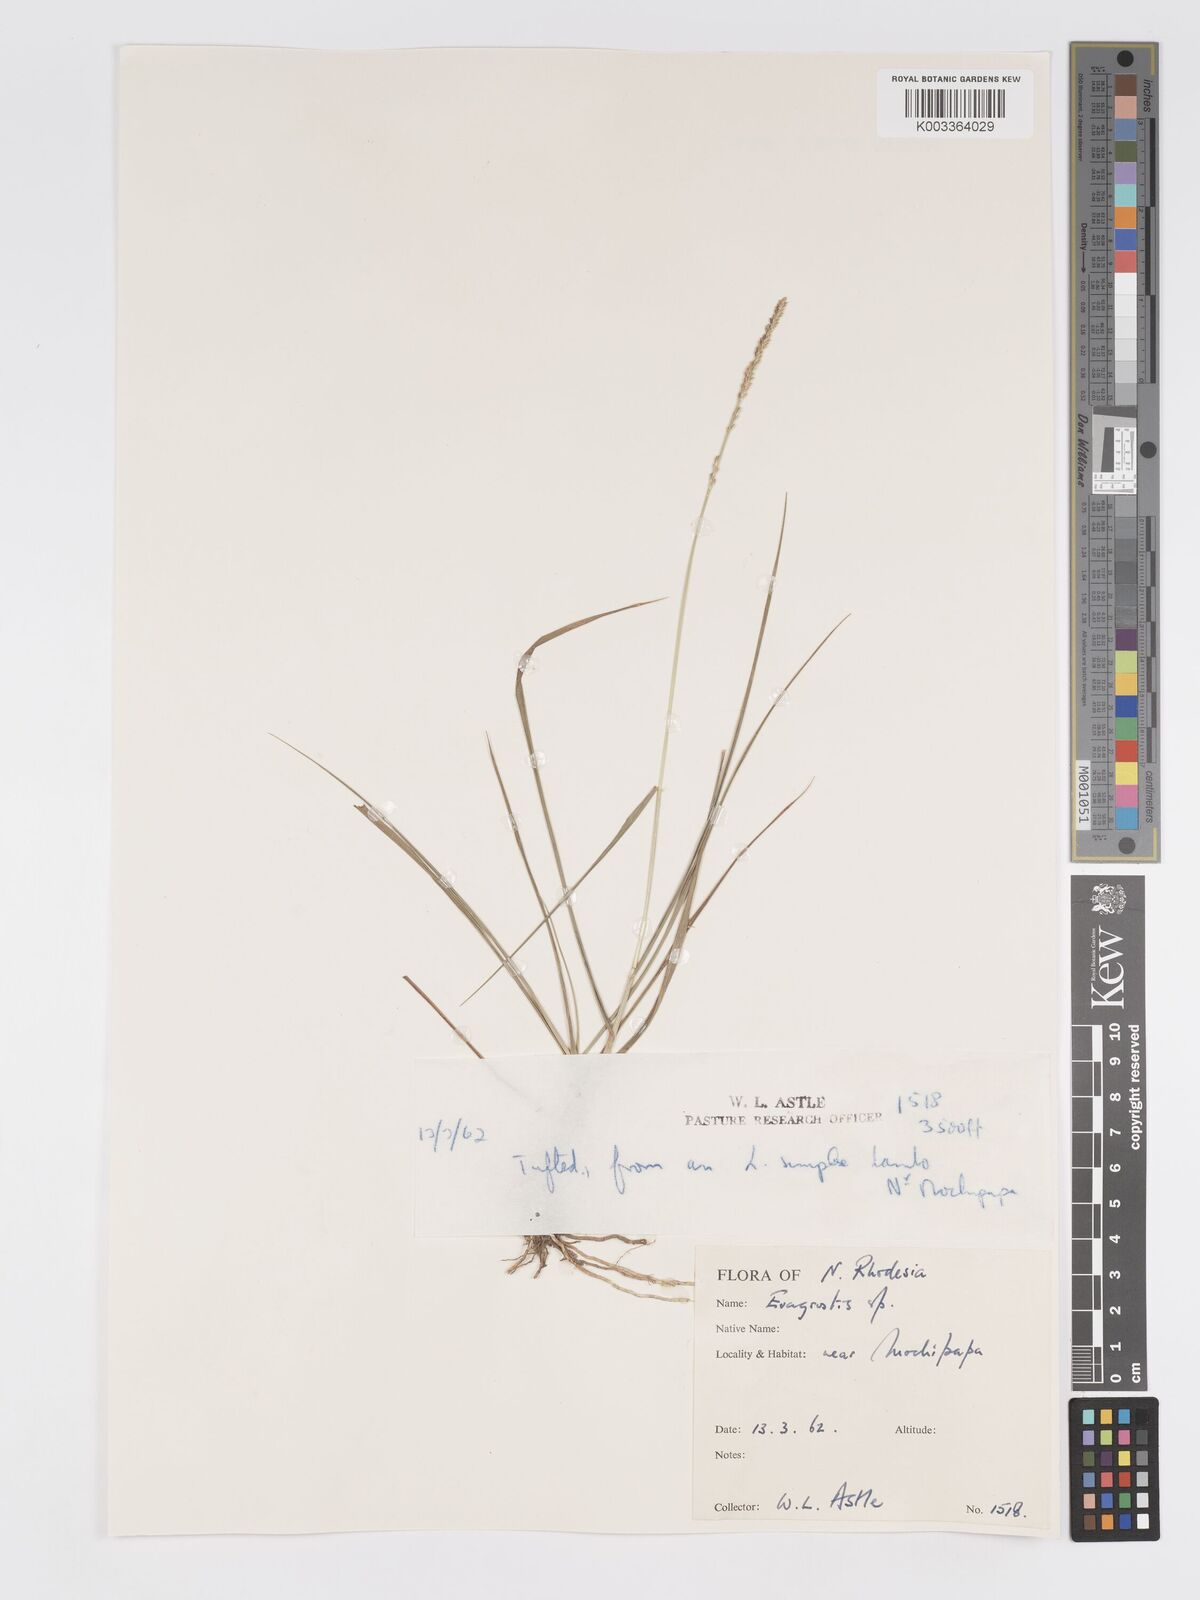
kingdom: Plantae
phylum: Tracheophyta
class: Liliopsida
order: Poales
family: Poaceae
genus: Eragrostis
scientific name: Eragrostis chapelieri
